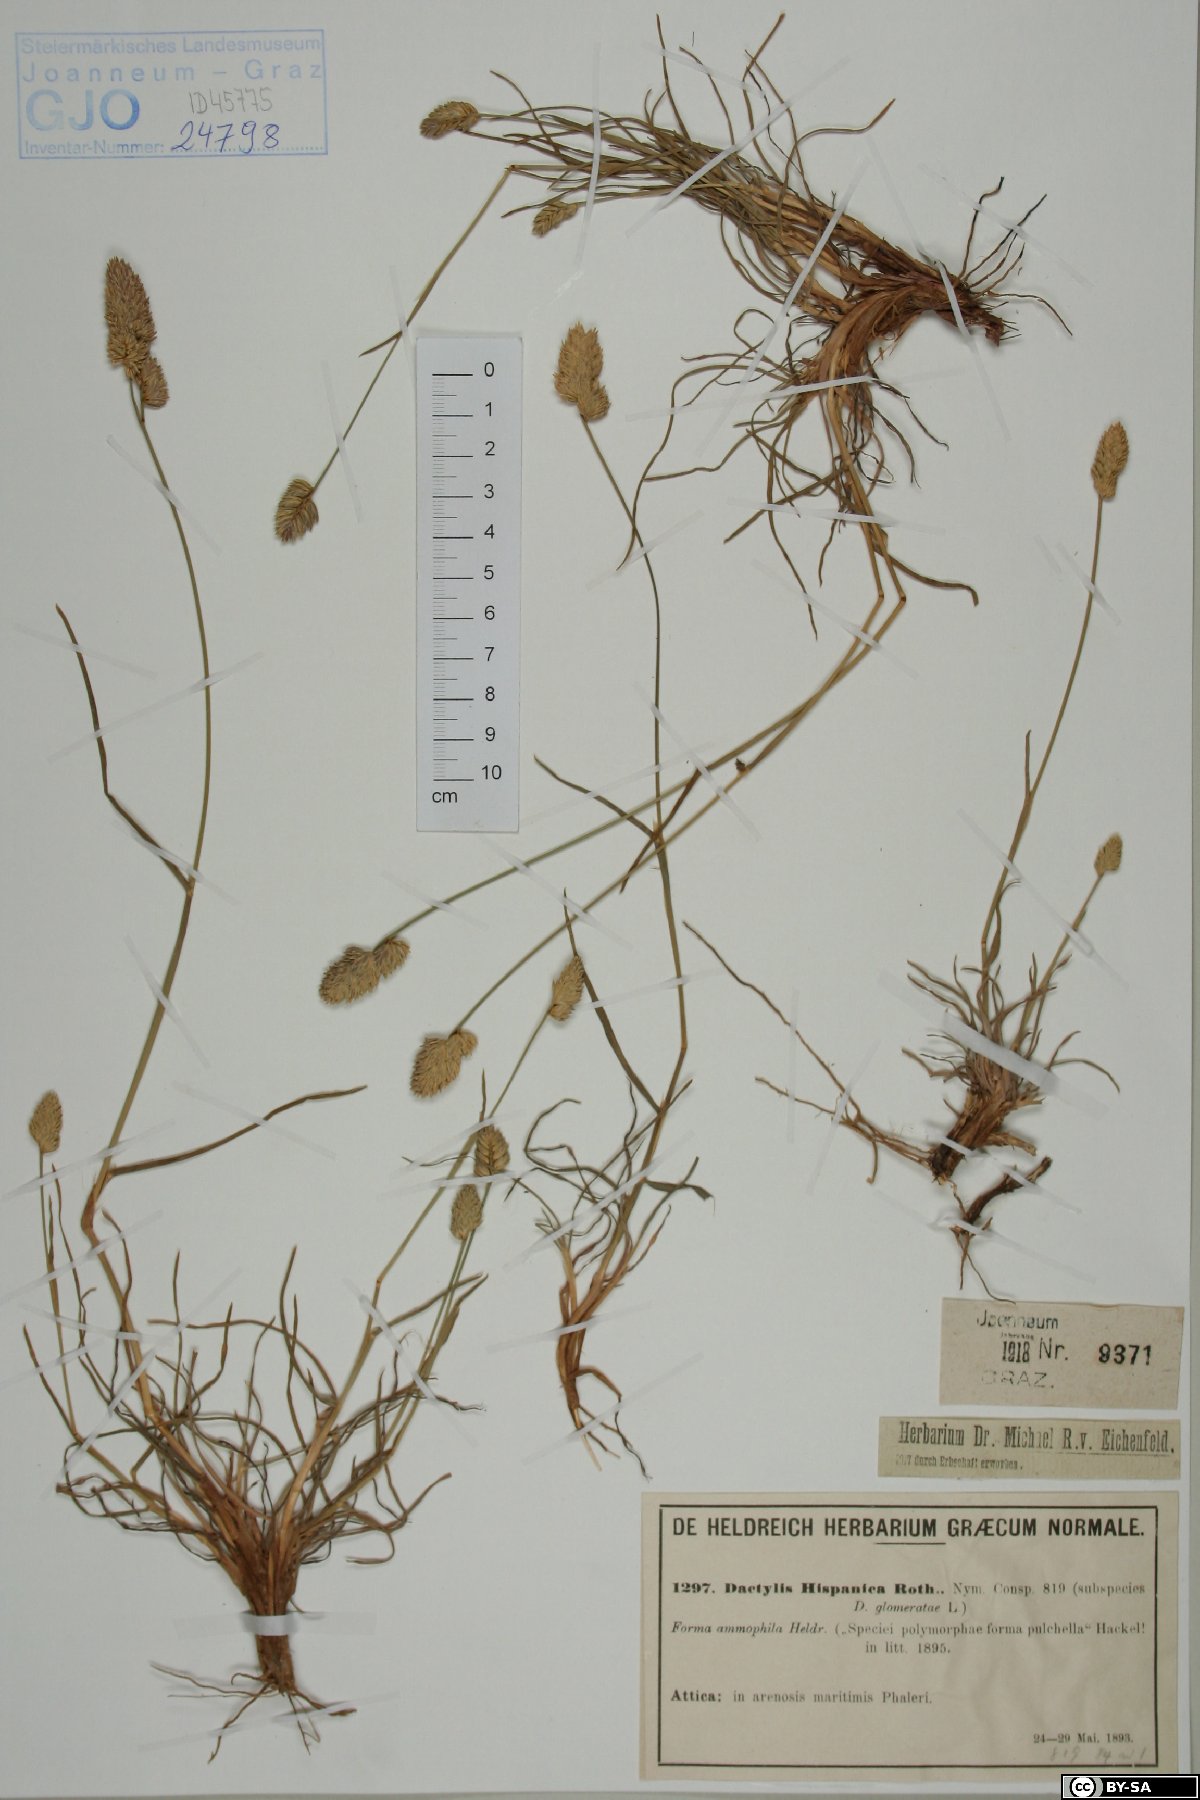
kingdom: Plantae
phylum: Tracheophyta
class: Liliopsida
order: Poales
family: Poaceae
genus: Dactylis
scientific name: Dactylis glomerata
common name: Orchardgrass
